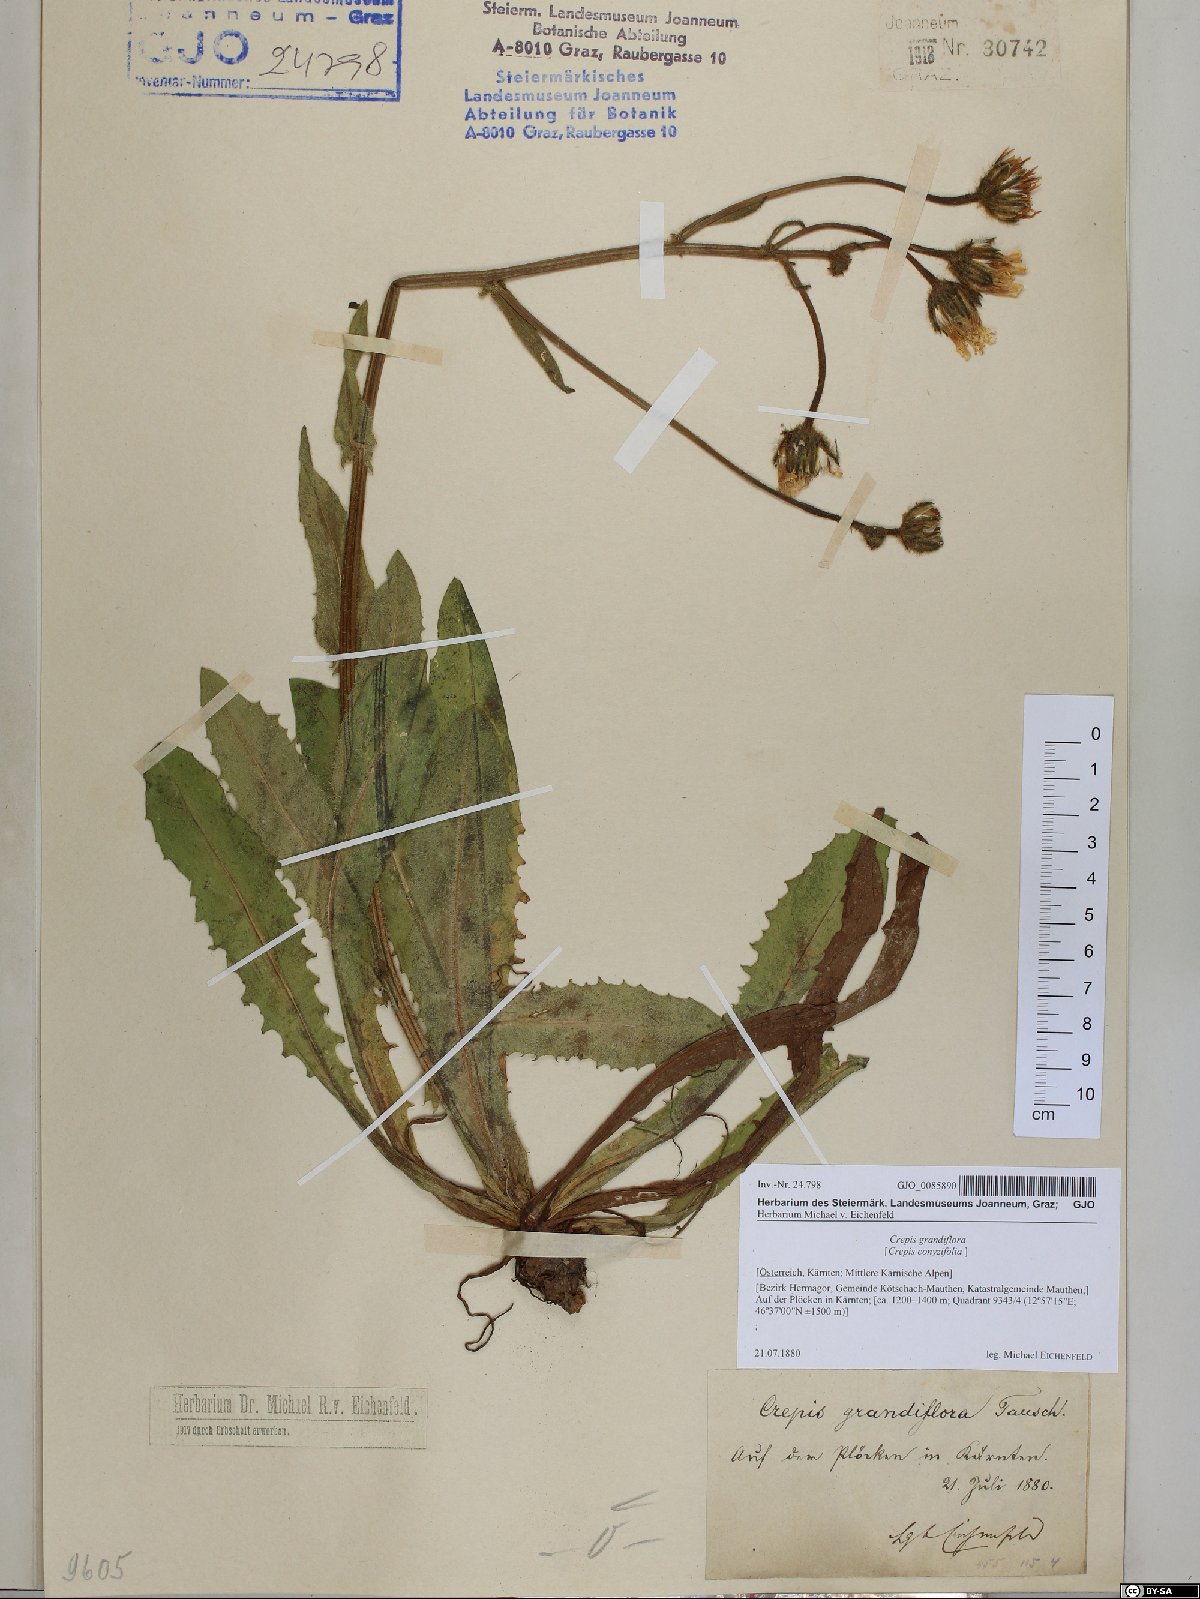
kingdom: Plantae
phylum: Tracheophyta
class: Magnoliopsida
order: Asterales
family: Asteraceae
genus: Crepis
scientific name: Crepis pyrenaica
